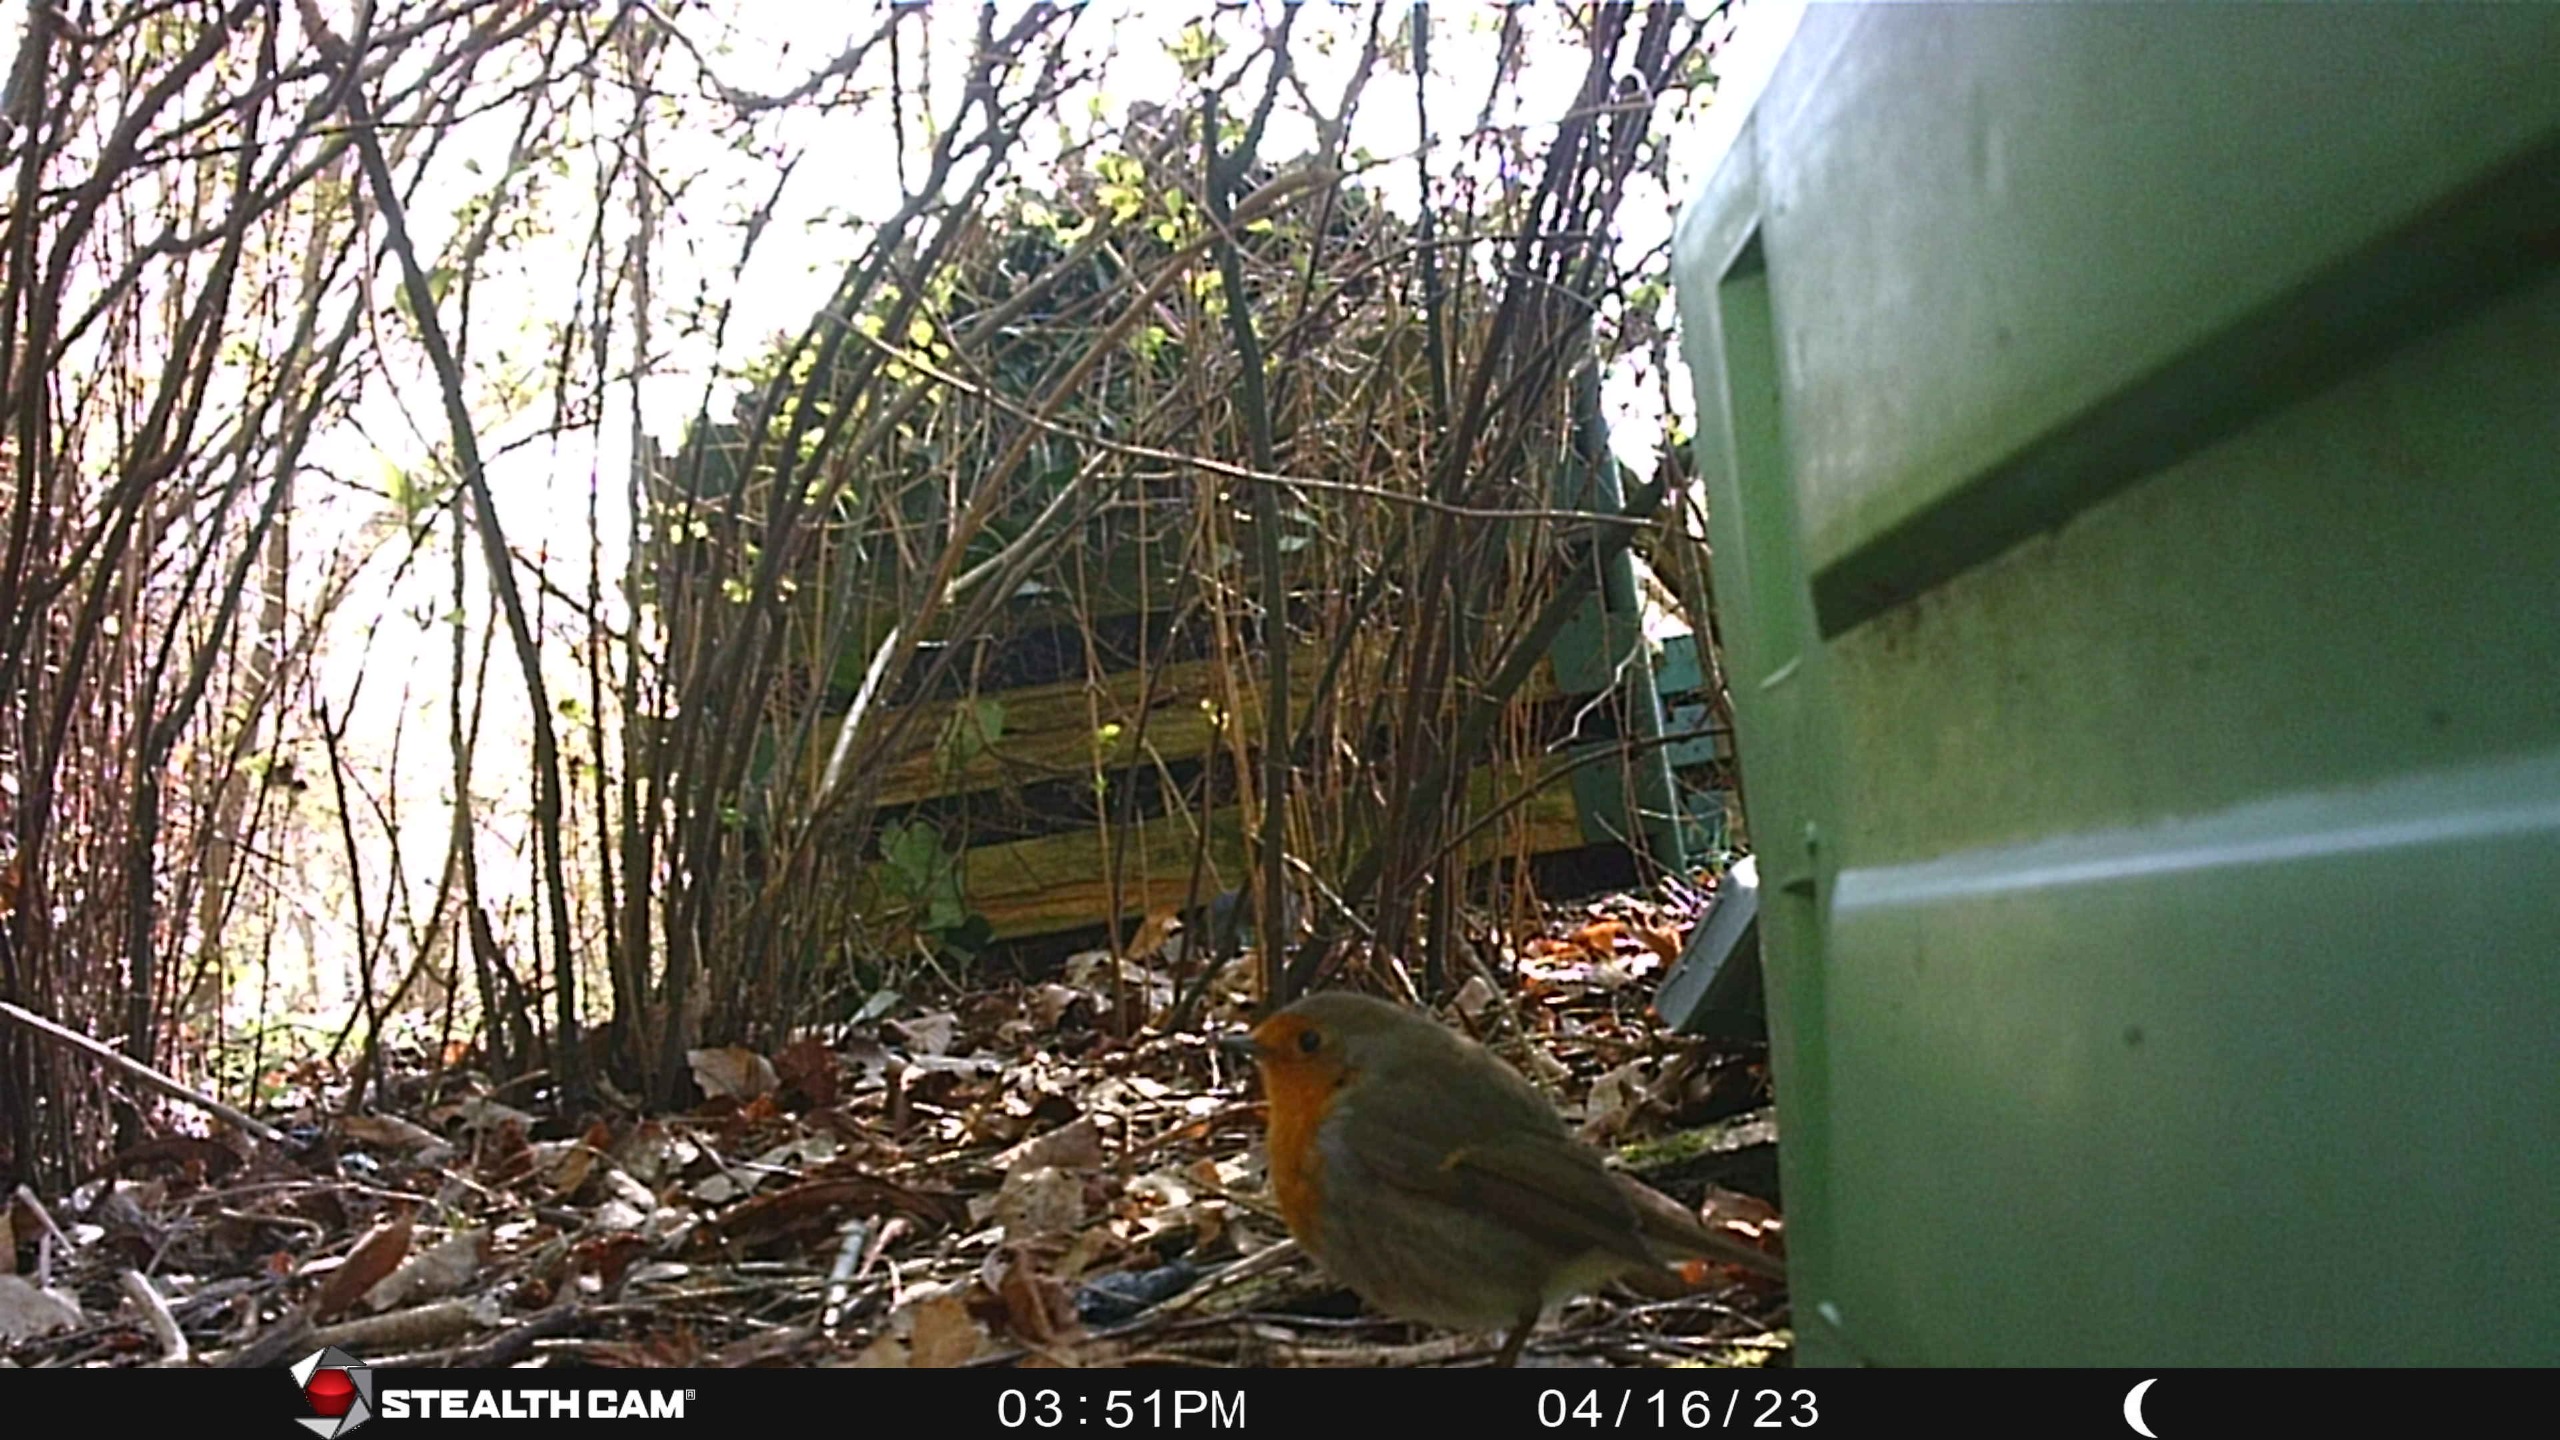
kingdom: Animalia
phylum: Chordata
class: Aves
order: Passeriformes
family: Muscicapidae
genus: Erithacus
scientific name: Erithacus rubecula
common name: Rødhals/rødkælk
